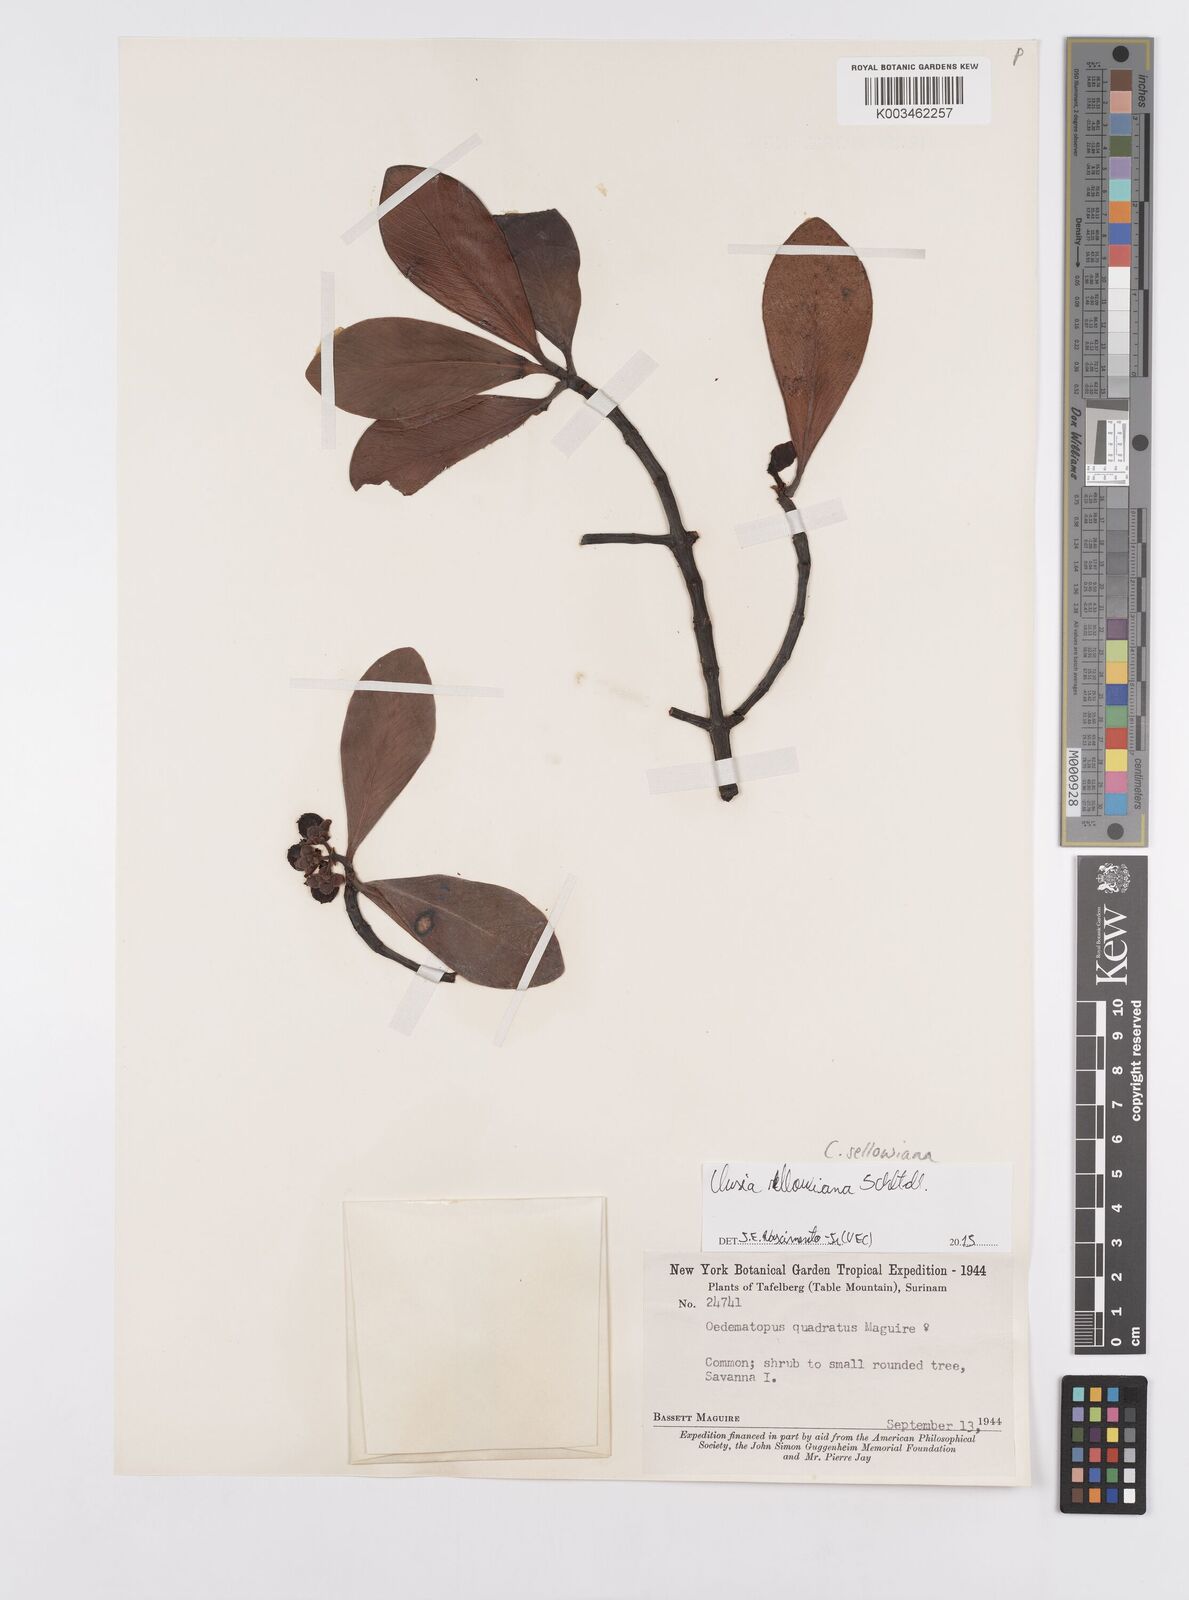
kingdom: Plantae
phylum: Tracheophyta
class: Magnoliopsida
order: Malpighiales
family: Clusiaceae
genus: Clusia
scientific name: Clusia sellowiana
